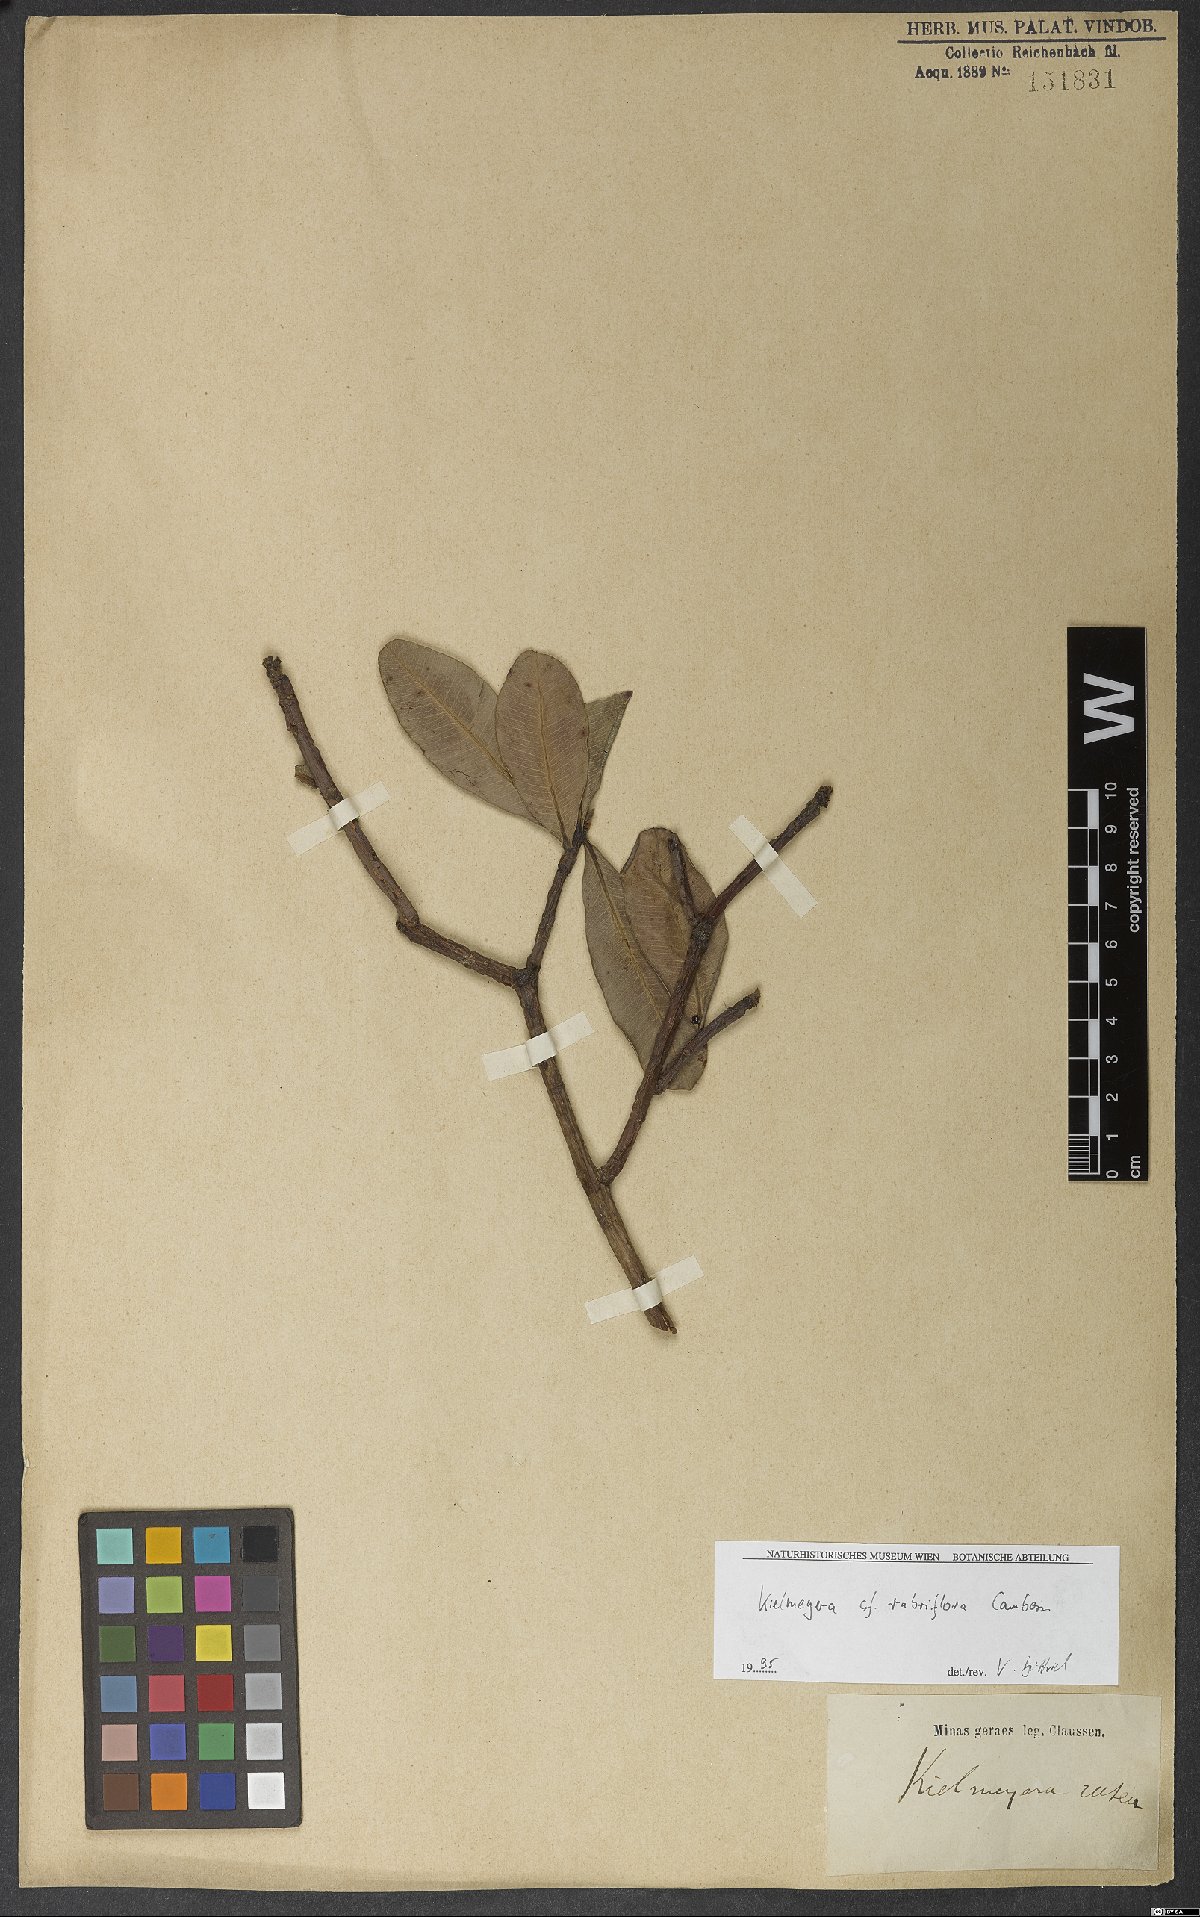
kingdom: Plantae
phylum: Tracheophyta
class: Magnoliopsida
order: Malpighiales
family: Calophyllaceae
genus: Kielmeyera
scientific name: Kielmeyera rubriflora
